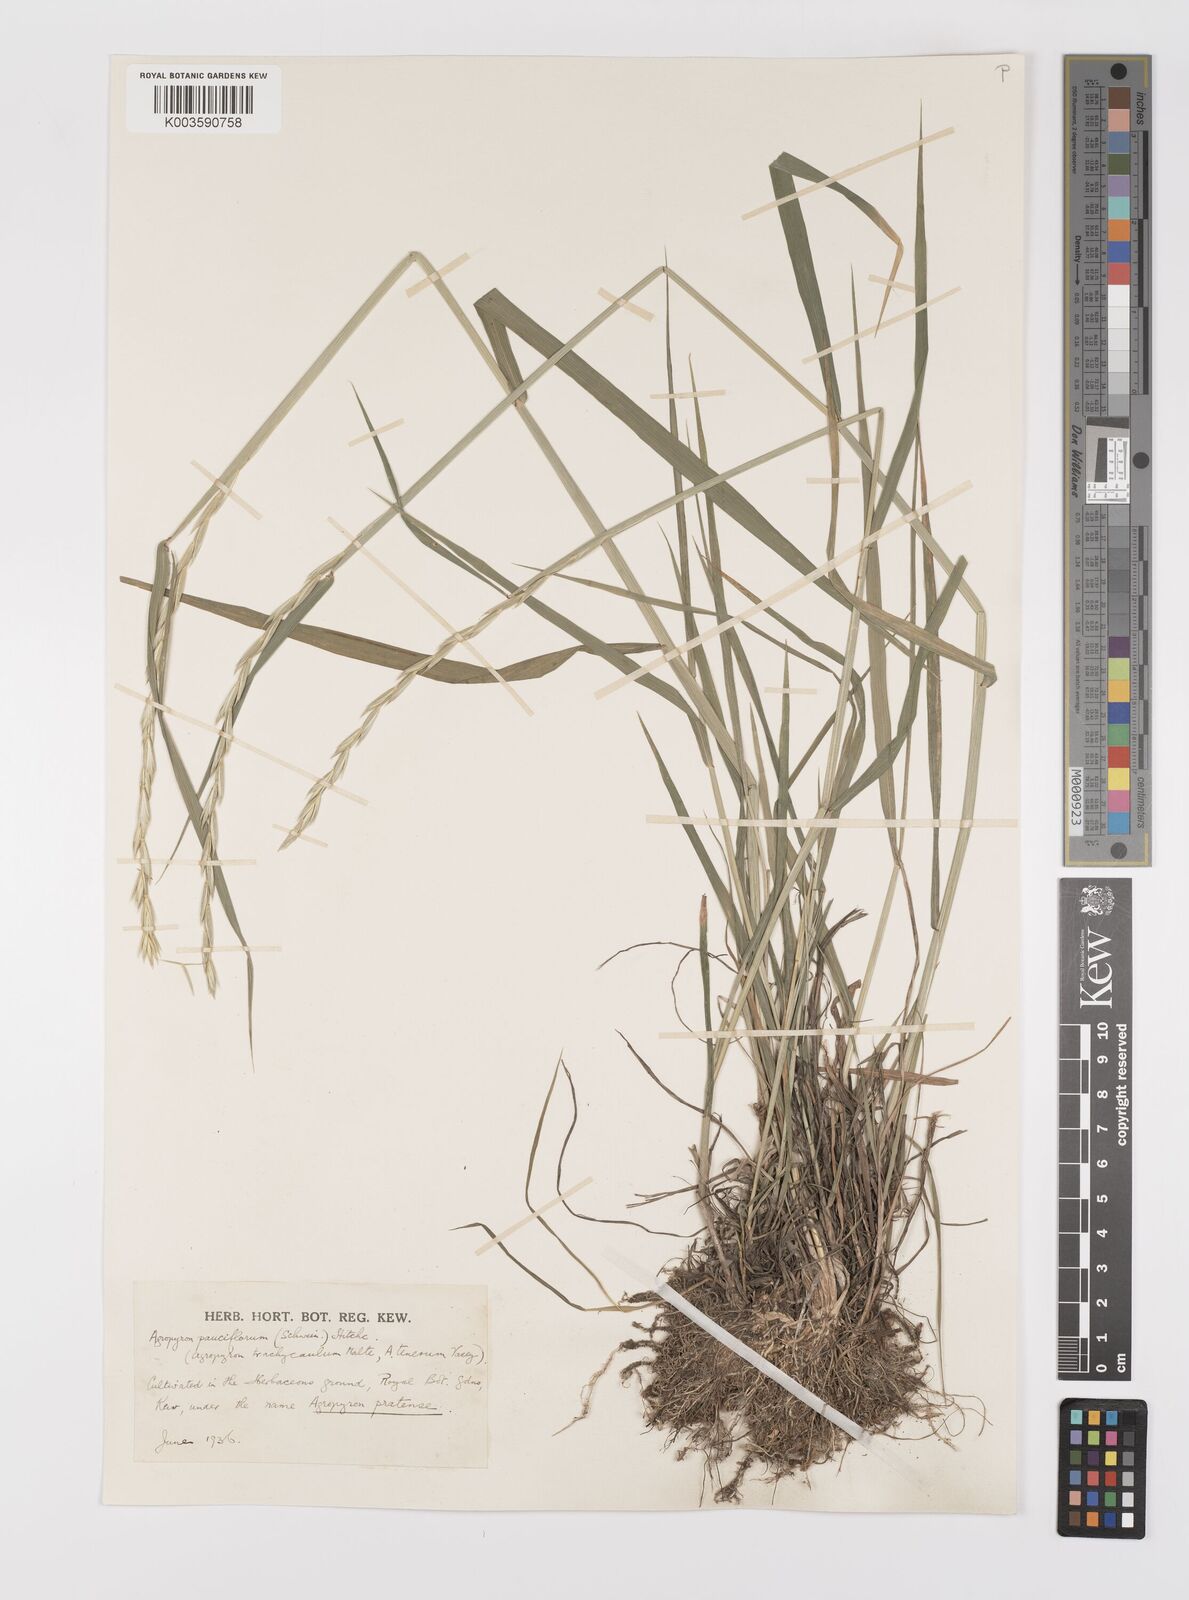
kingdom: Plantae
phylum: Tracheophyta
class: Liliopsida
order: Poales
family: Poaceae
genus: Elymus
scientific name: Elymus violaceus
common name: Arctic wheatgrass
